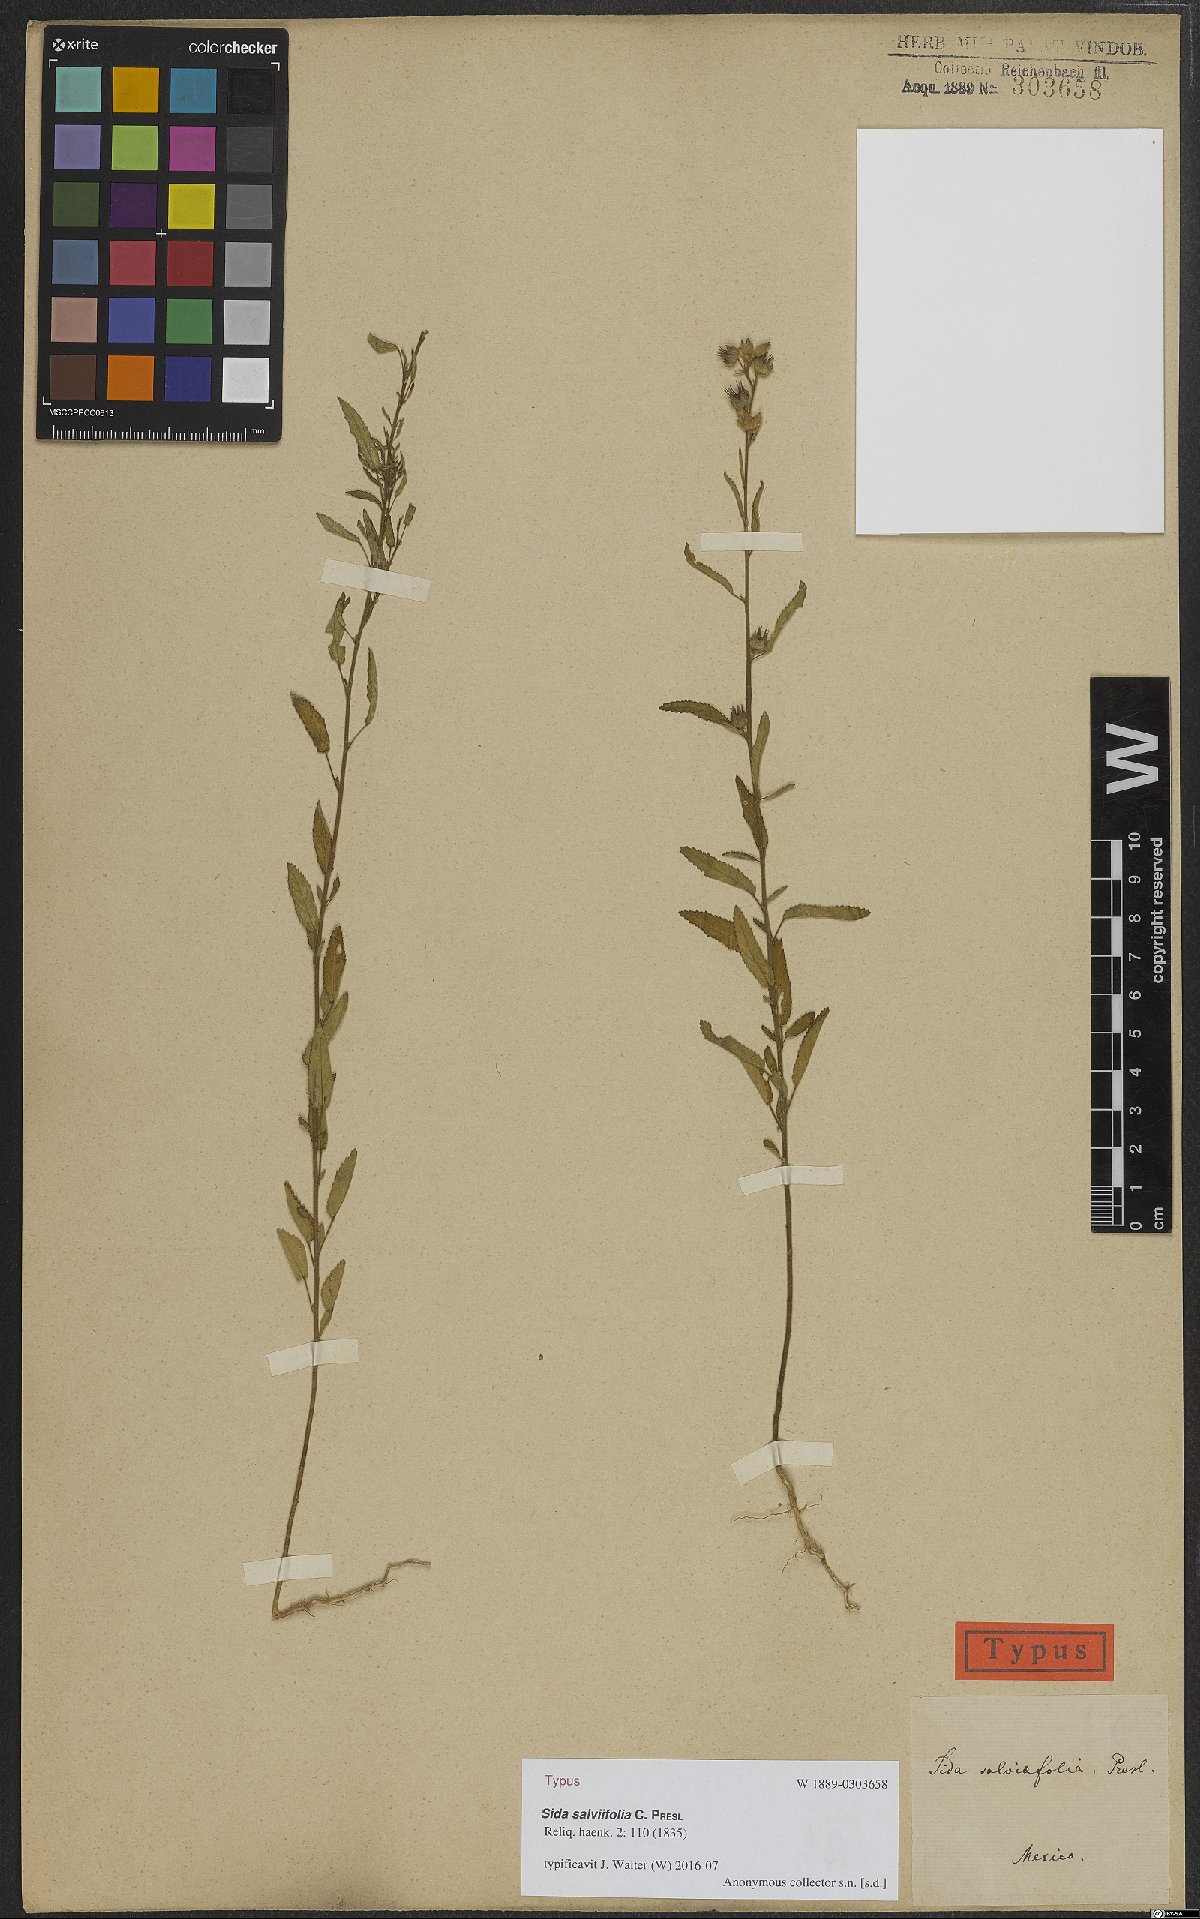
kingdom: Plantae
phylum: Tracheophyta
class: Magnoliopsida
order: Malvales
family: Malvaceae
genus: Sida
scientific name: Sida salviifolia
